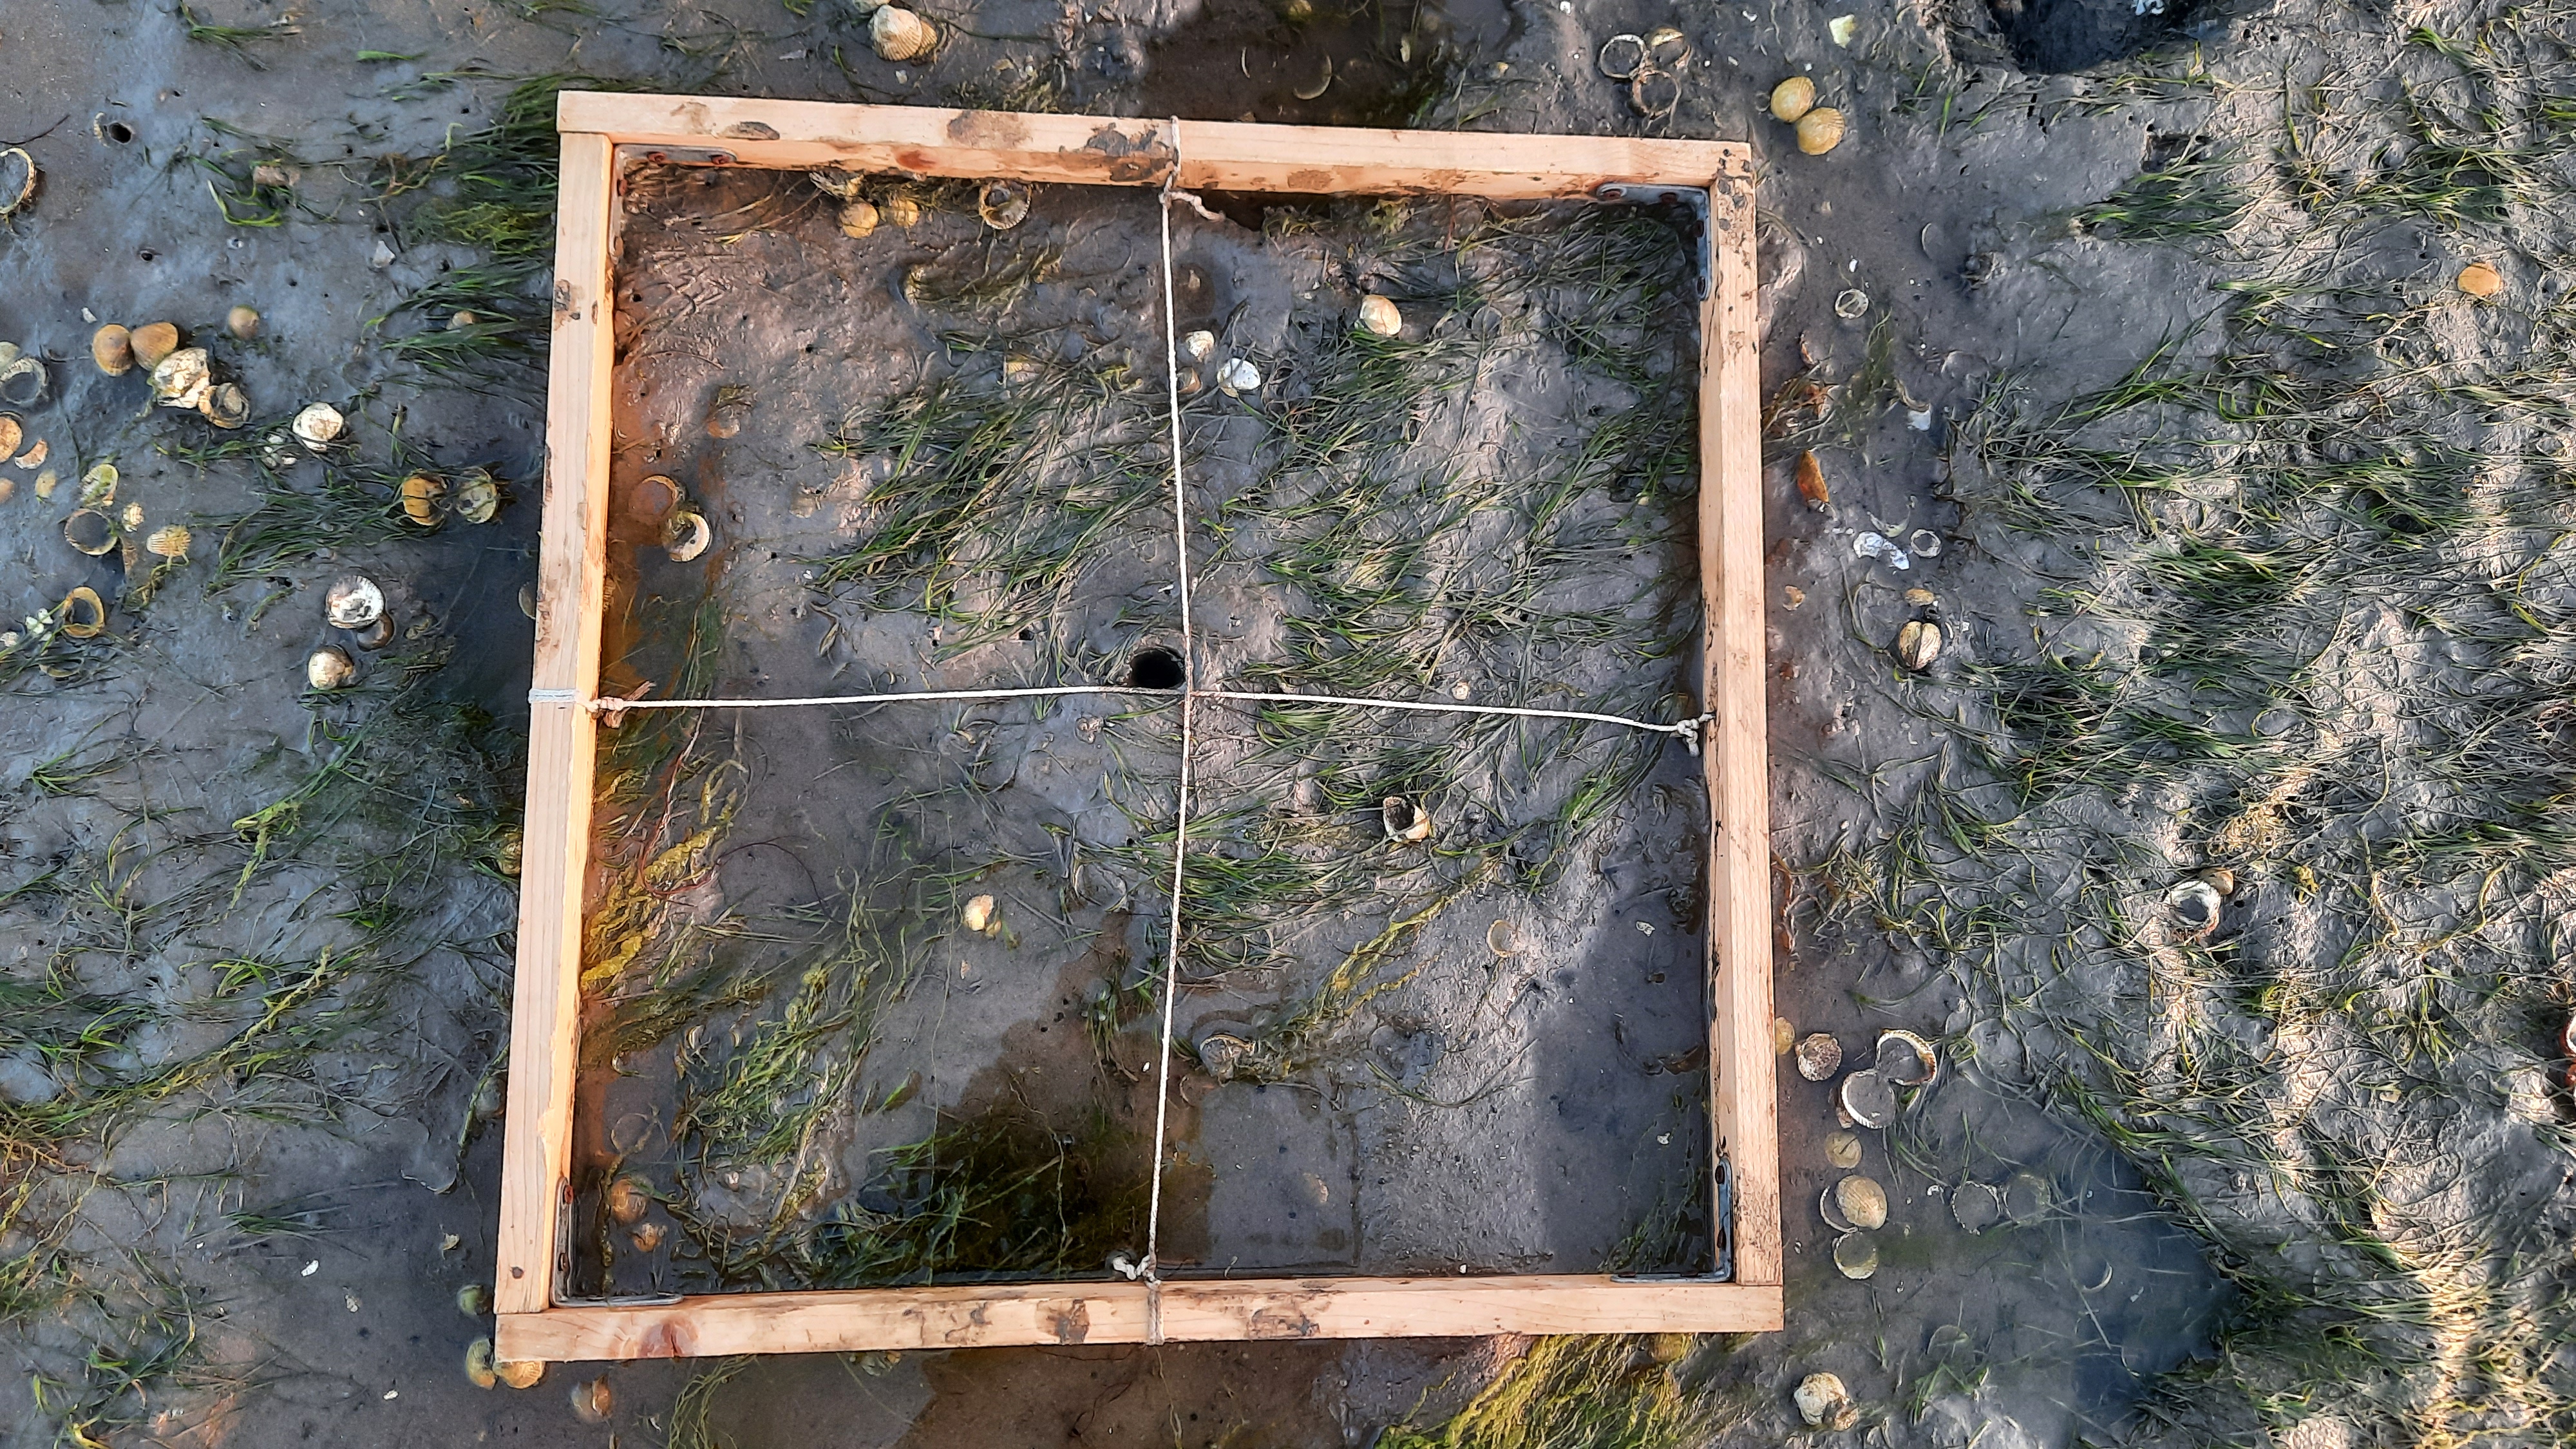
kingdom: Plantae
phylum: Chlorophyta
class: Ulvophyceae
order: Ulvales
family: Ulvaceae
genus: Ulva
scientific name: Ulva
